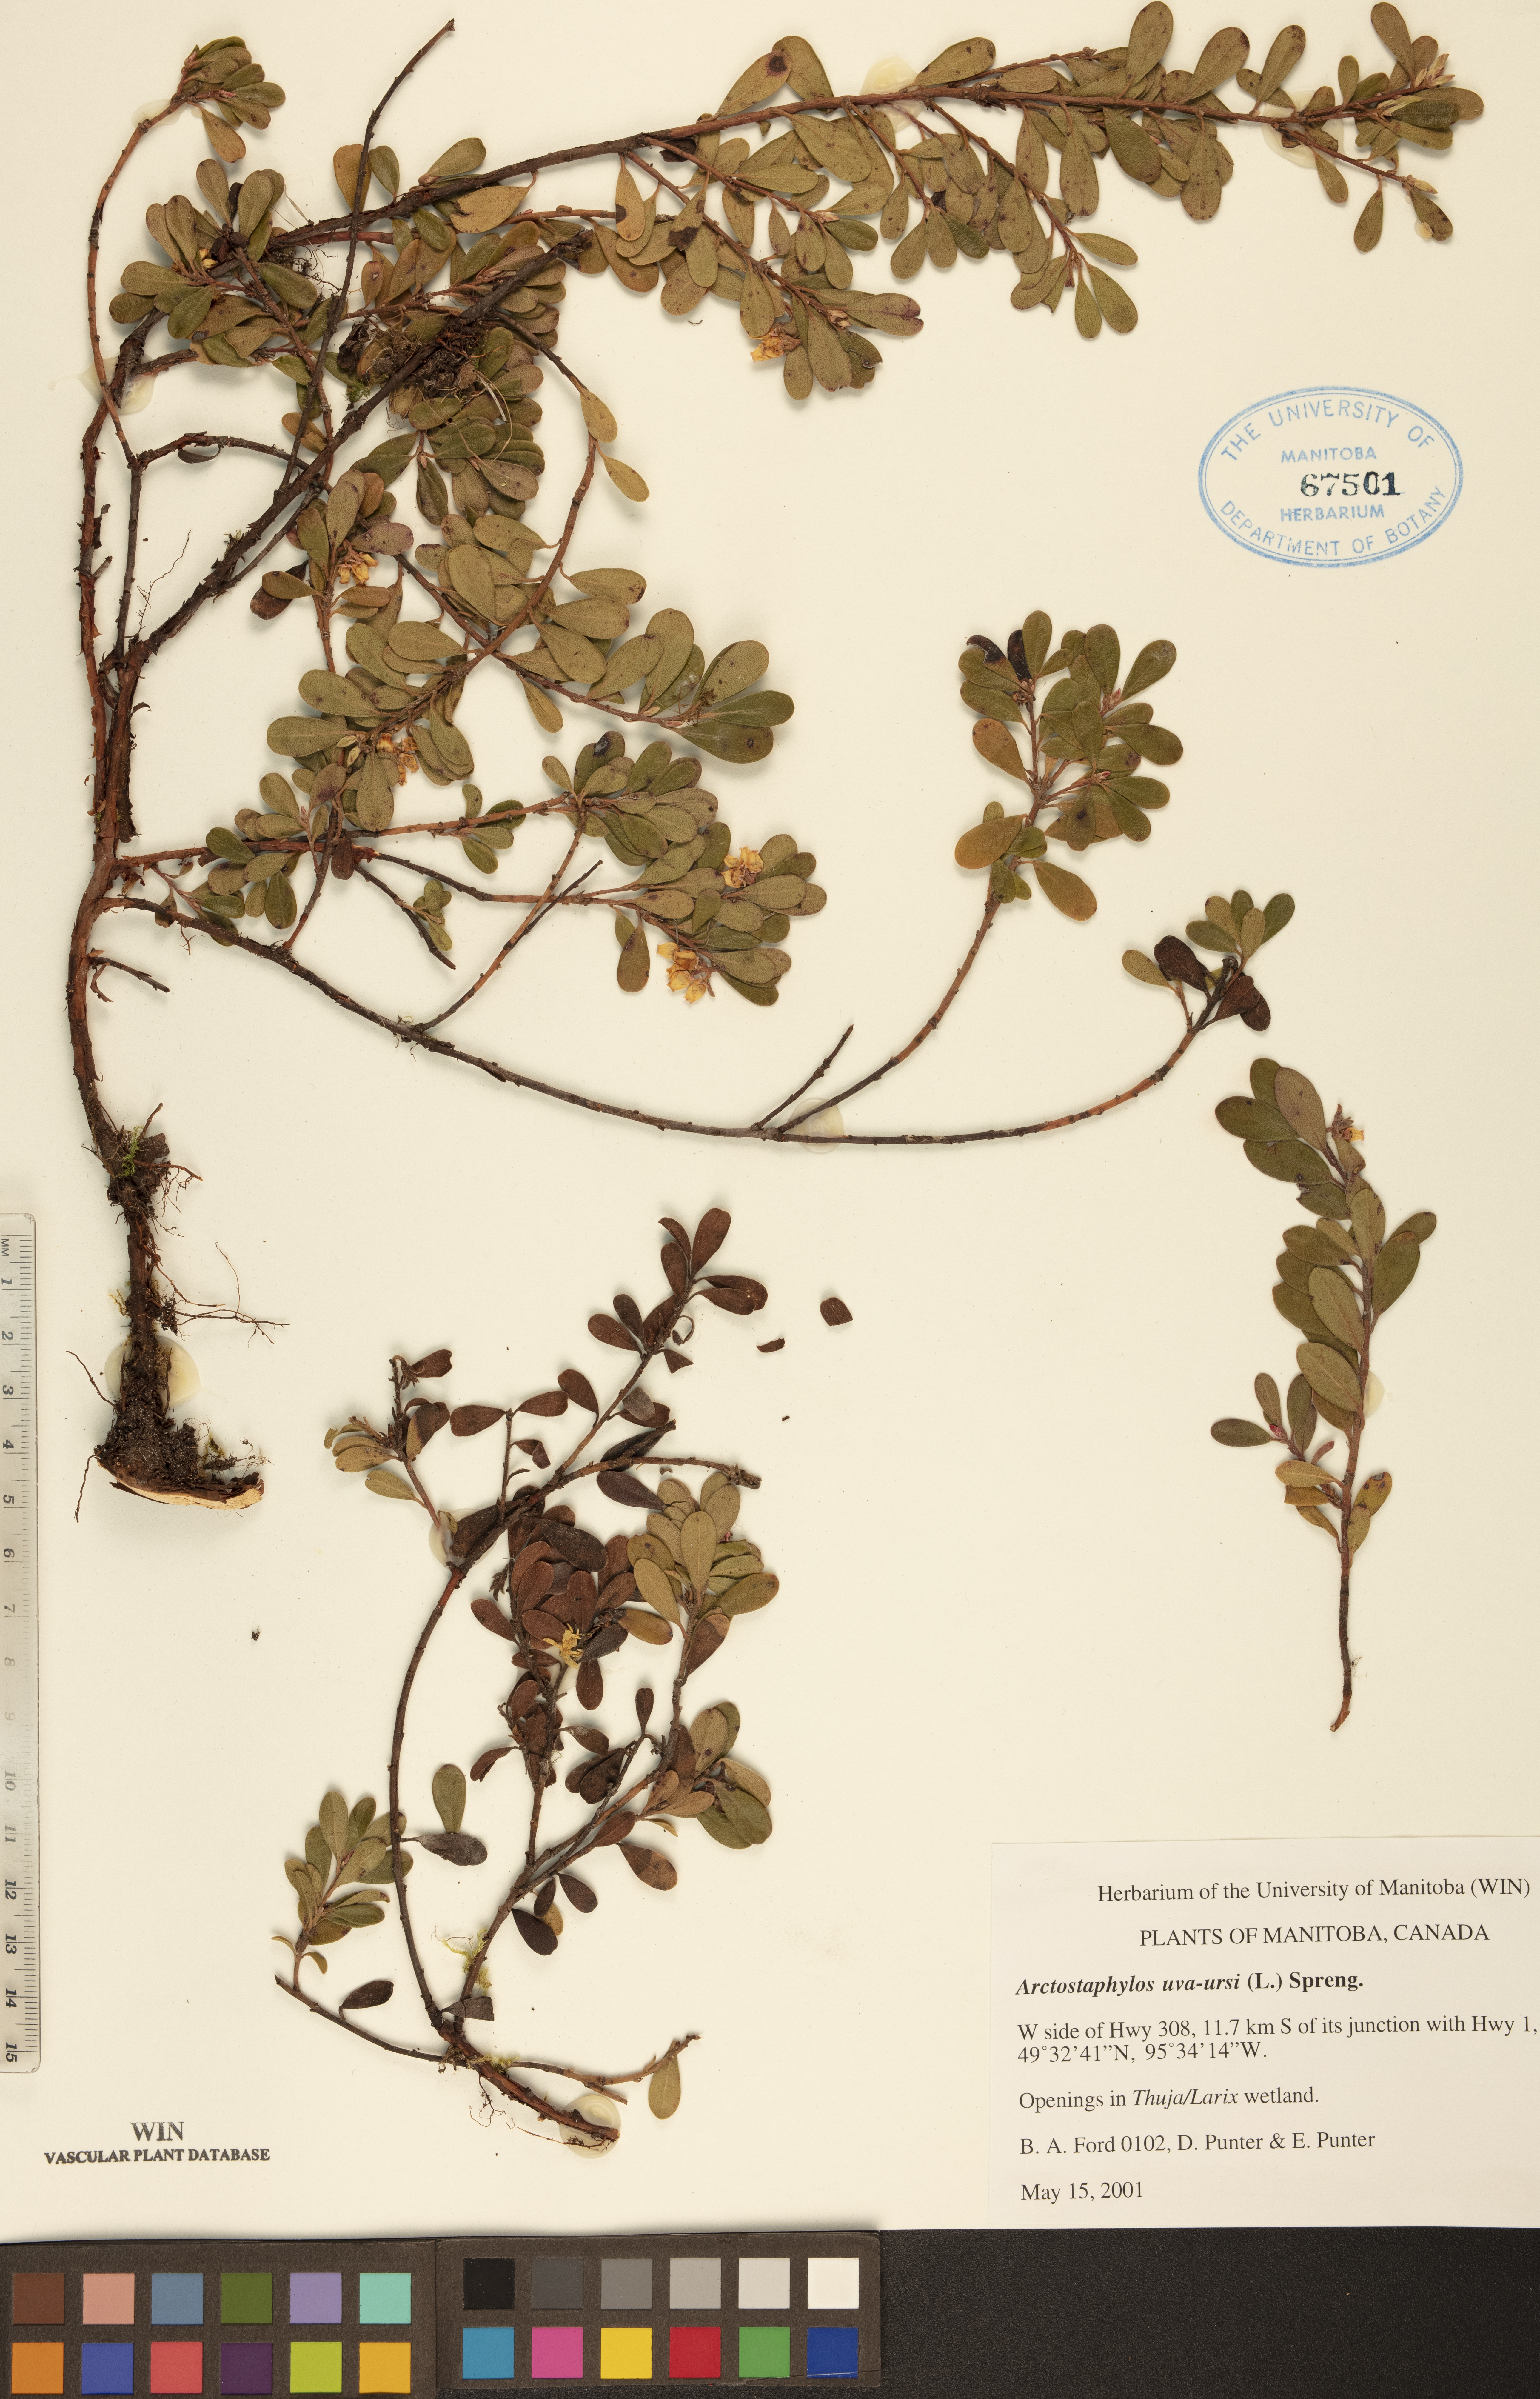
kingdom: Plantae
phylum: Tracheophyta
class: Magnoliopsida
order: Ericales
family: Ericaceae
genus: Arctostaphylos
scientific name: Arctostaphylos uva-ursi
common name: Bearberry
